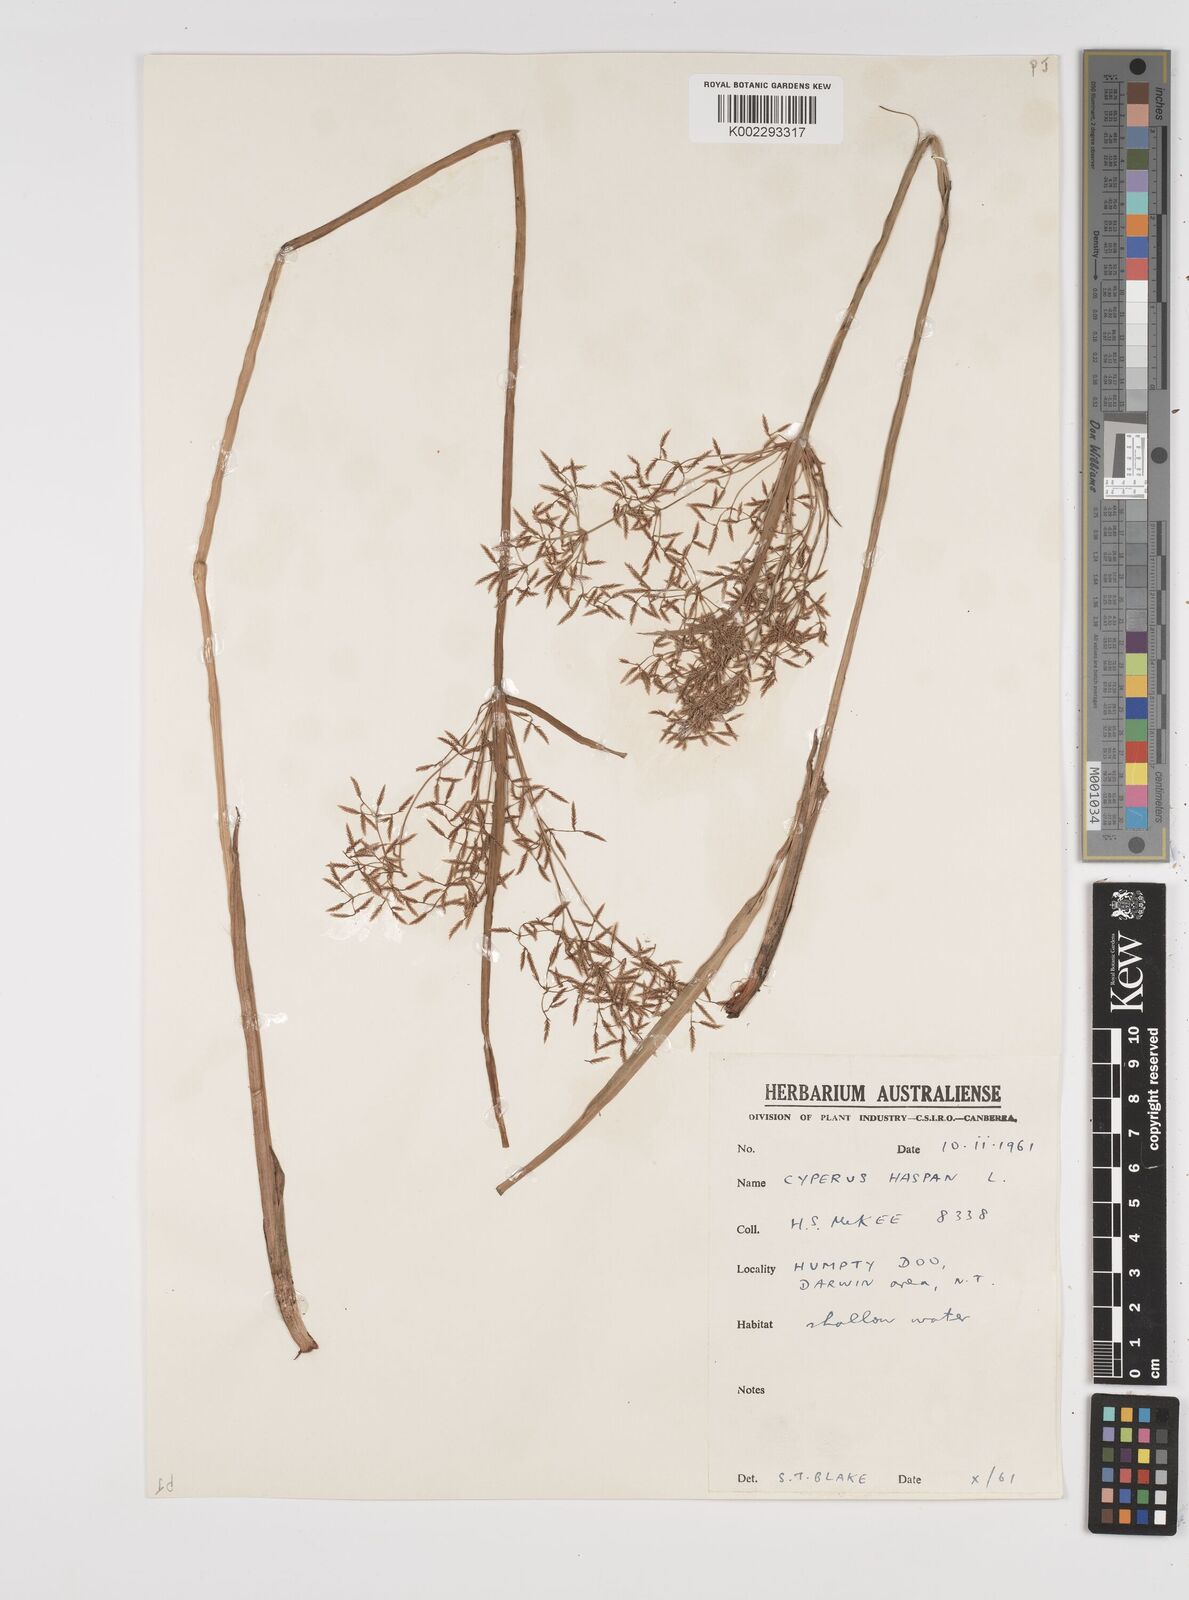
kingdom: Plantae
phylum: Tracheophyta
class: Liliopsida
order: Poales
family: Cyperaceae
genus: Cyperus
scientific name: Cyperus haspan
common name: Haspan flatsedge
